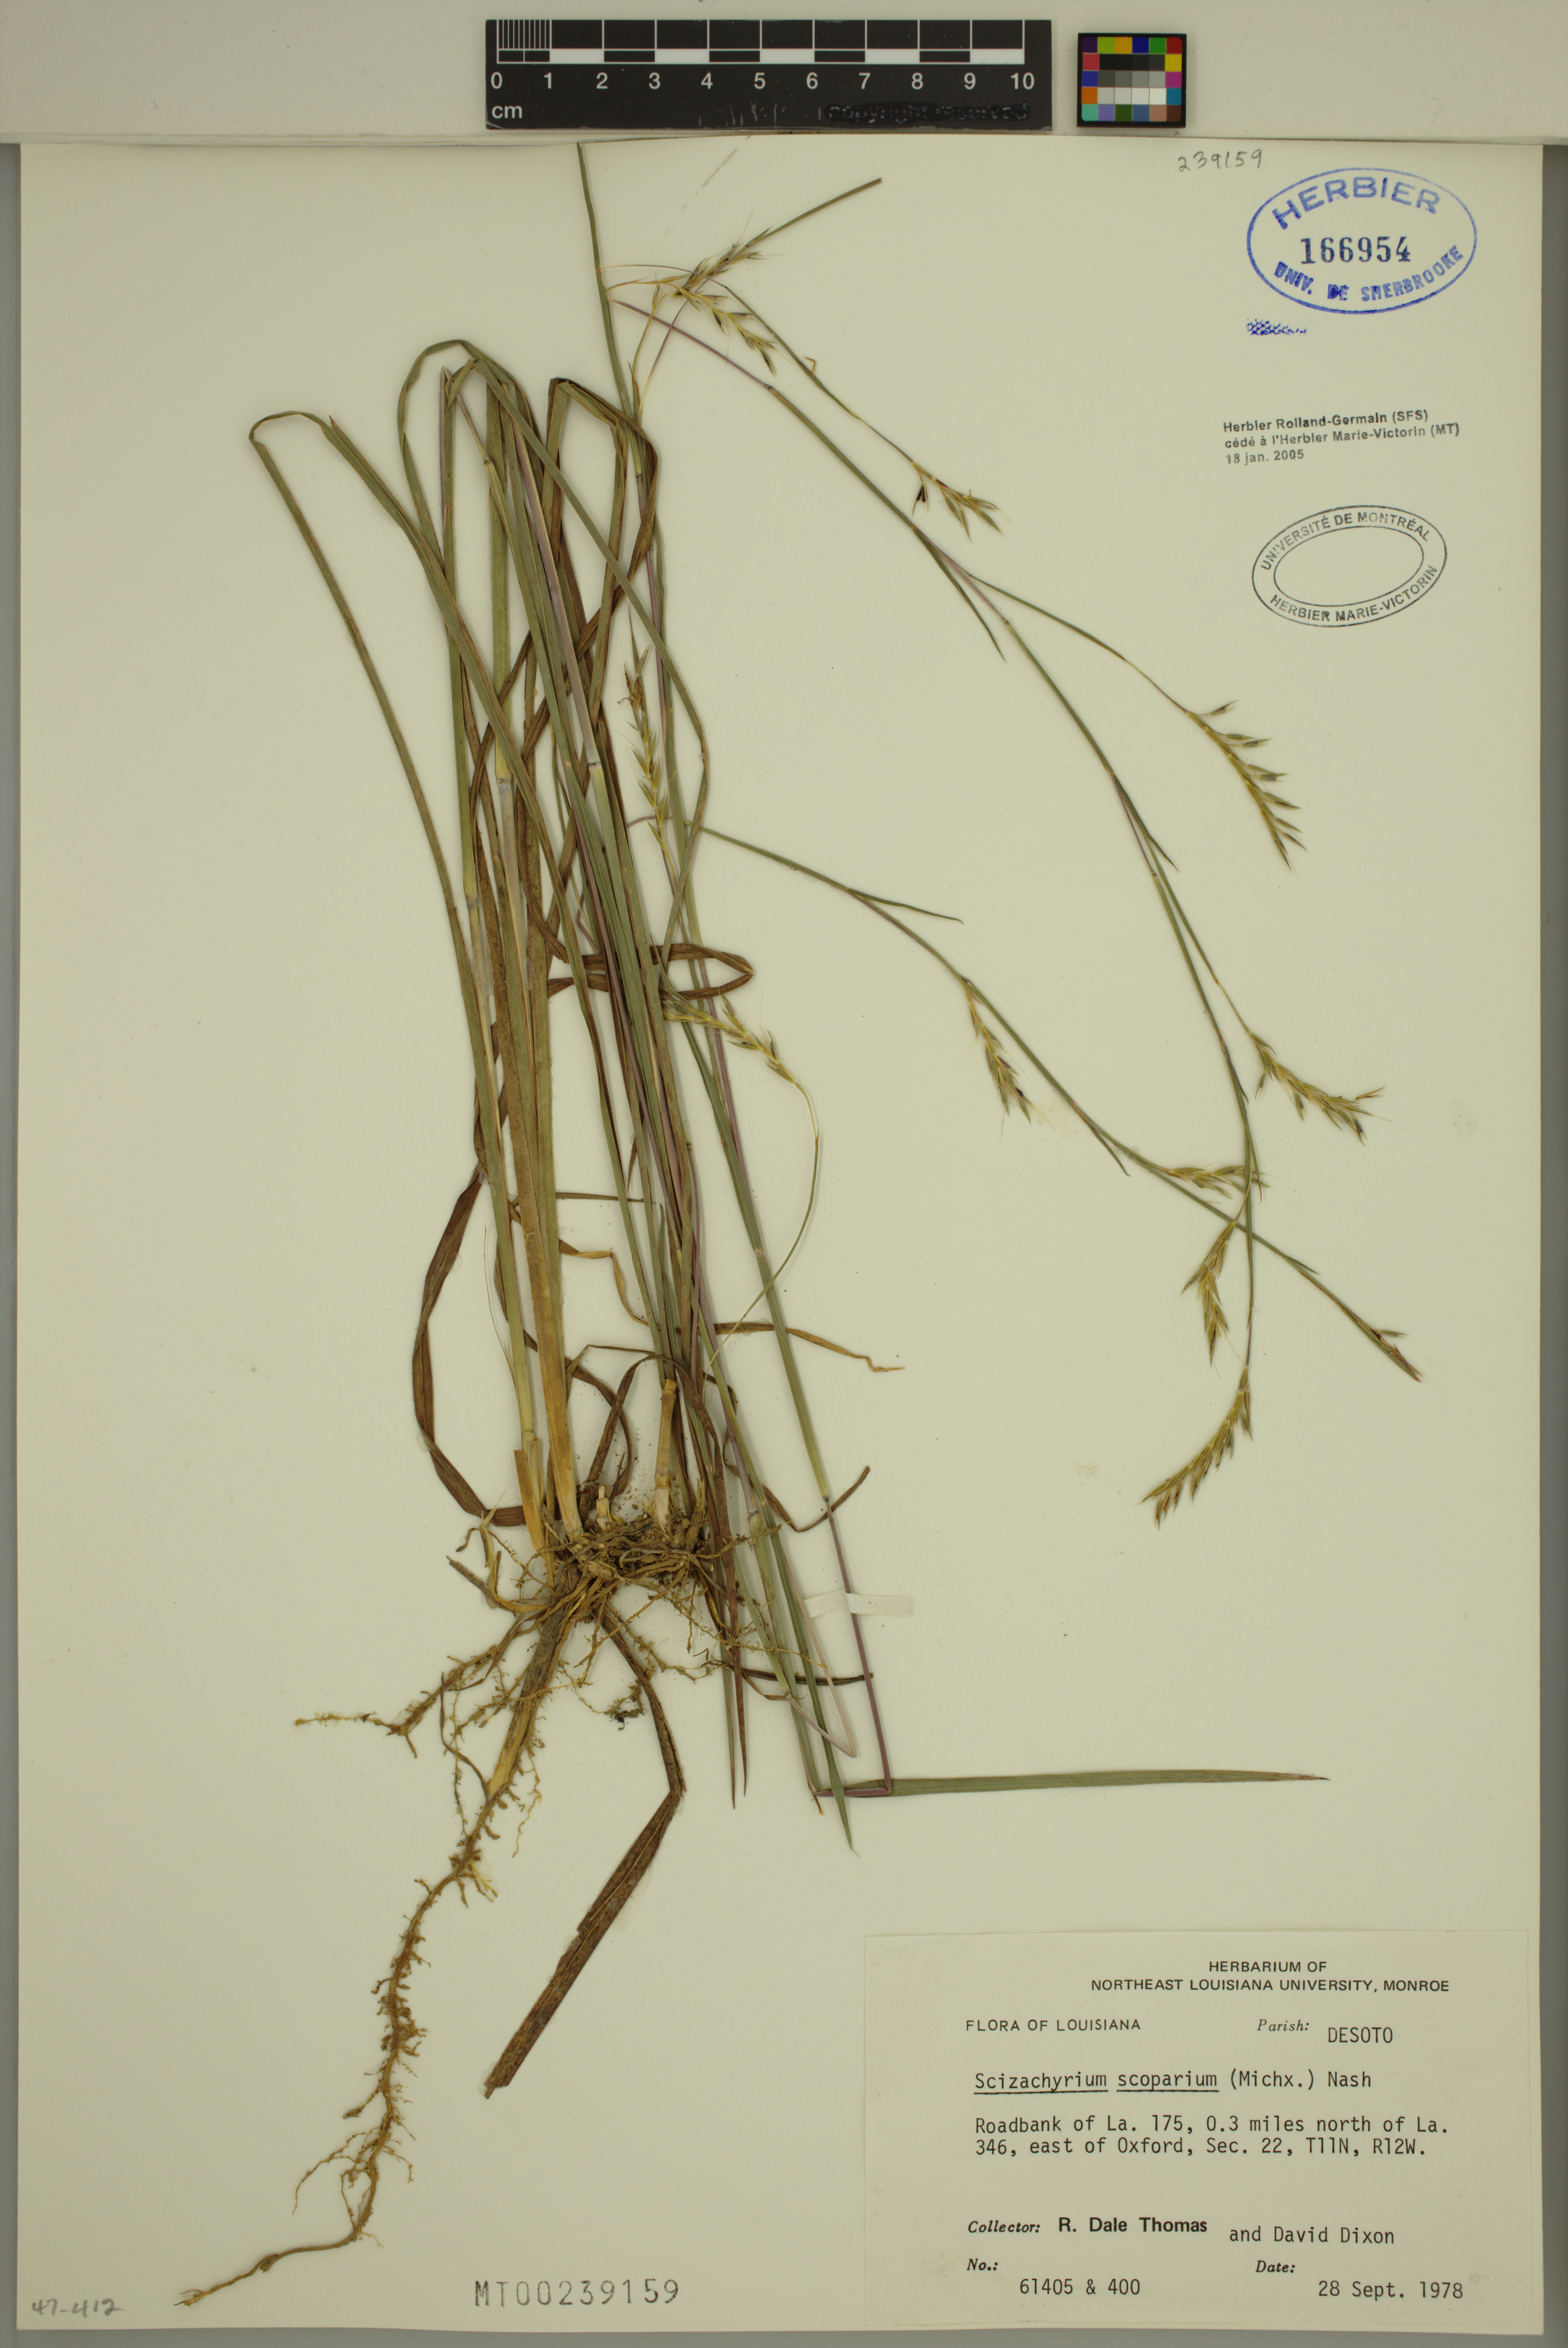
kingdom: Plantae
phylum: Tracheophyta
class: Liliopsida
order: Poales
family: Poaceae
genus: Schizachyrium
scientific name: Schizachyrium scoparium
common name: Little bluestem
